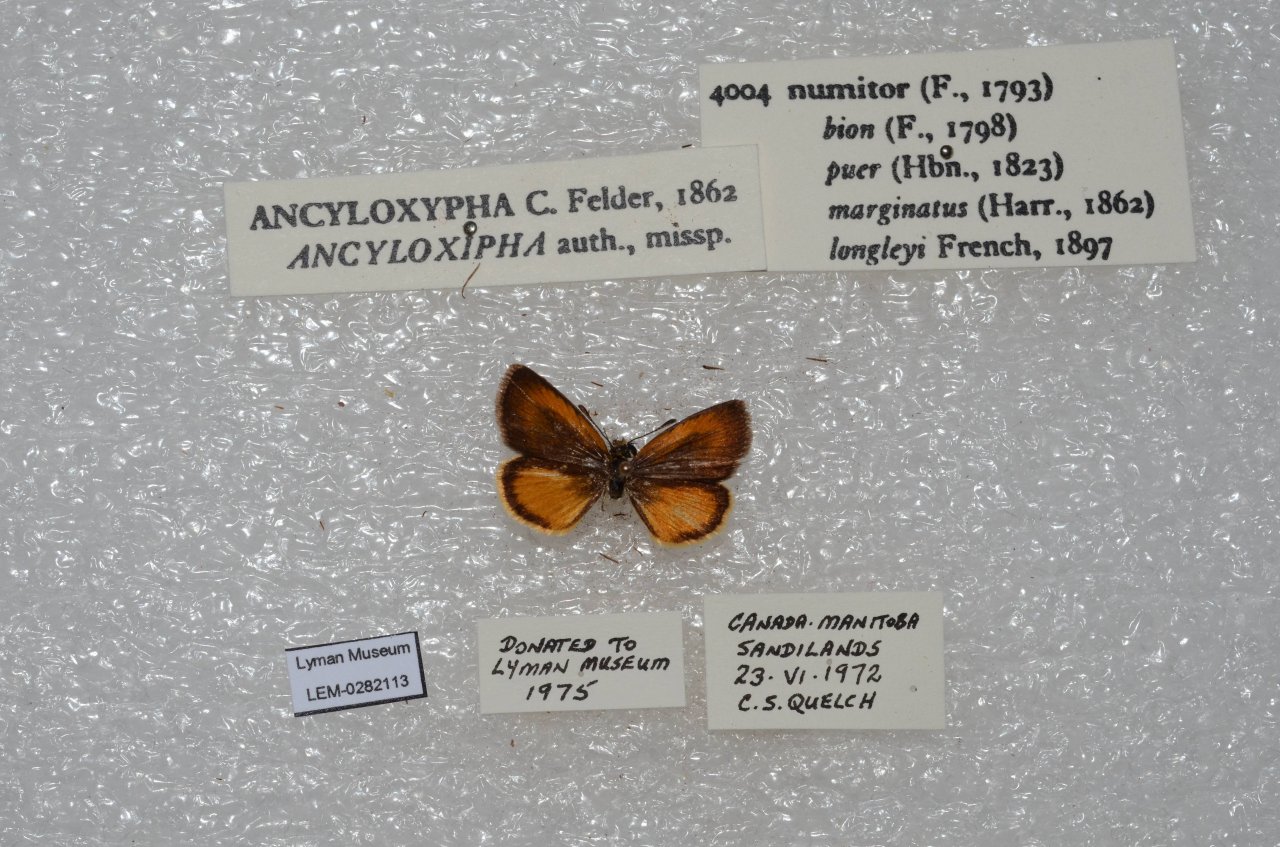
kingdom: Animalia
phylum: Arthropoda
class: Insecta
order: Lepidoptera
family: Hesperiidae
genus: Ancyloxypha
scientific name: Ancyloxypha numitor
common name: Least Skipper
